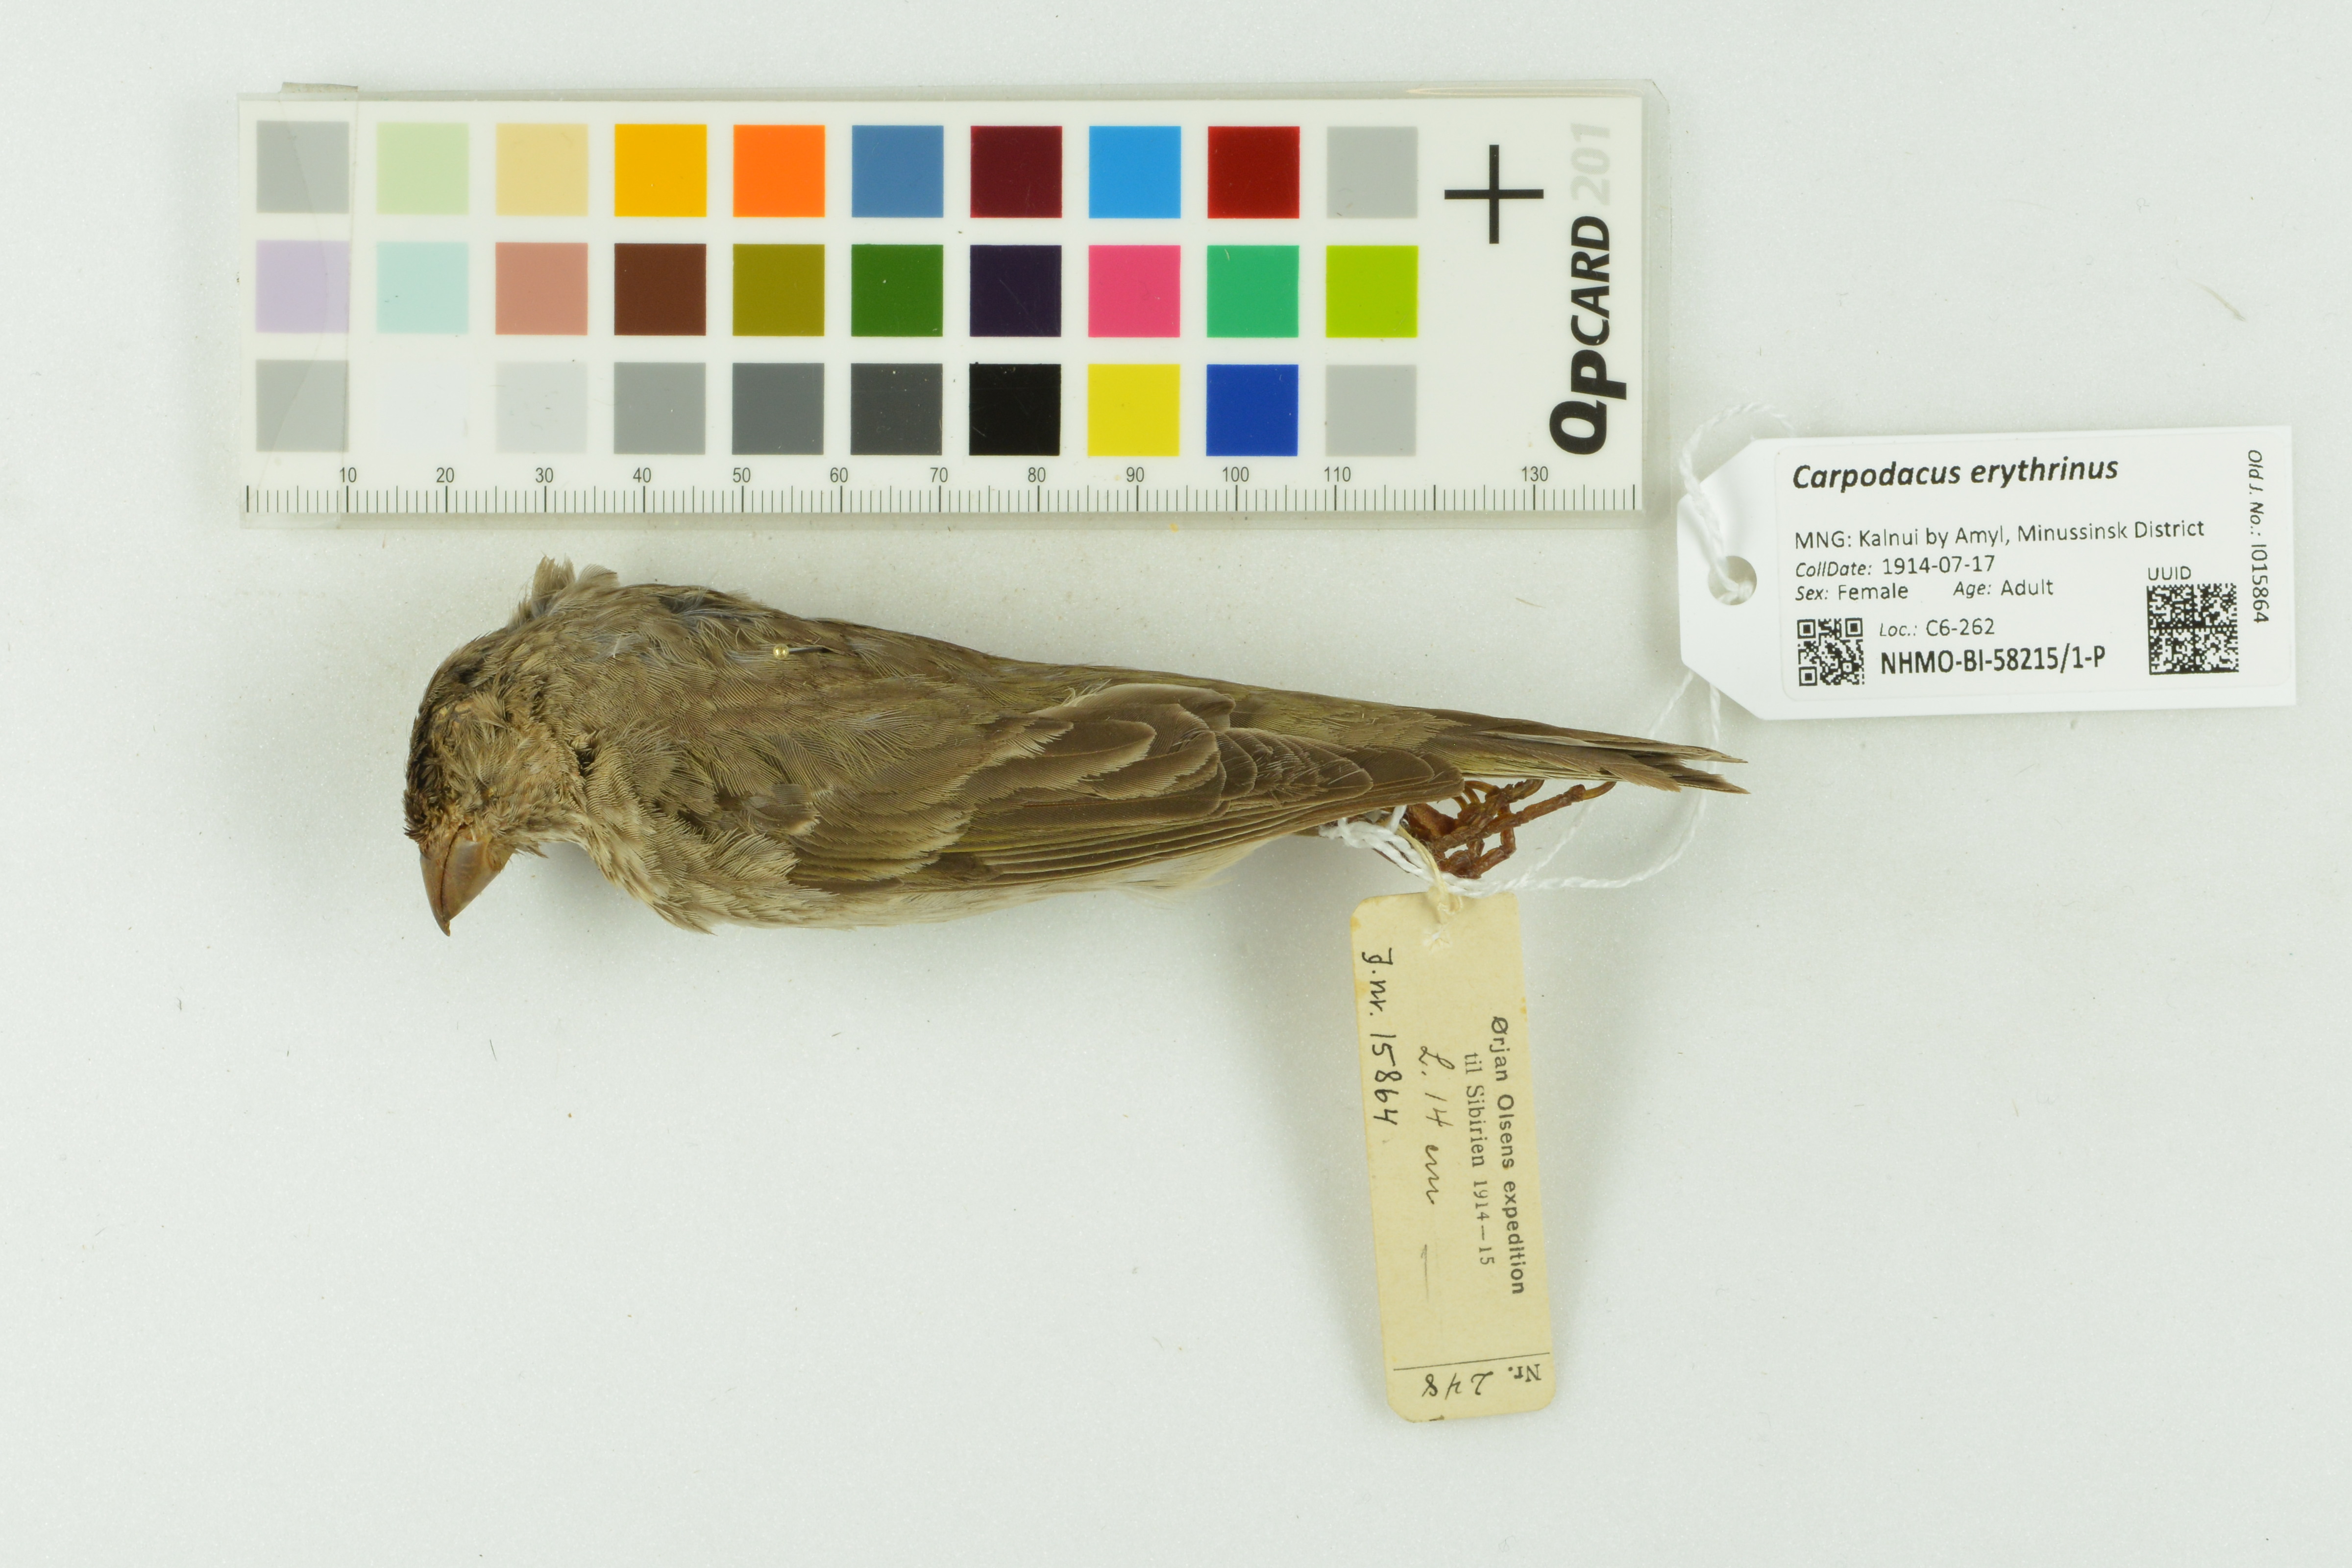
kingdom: Animalia
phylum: Chordata
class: Aves
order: Passeriformes
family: Fringillidae
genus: Carpodacus
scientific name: Carpodacus erythrinus
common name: Common rosefinch
